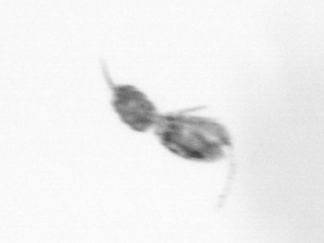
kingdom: Animalia
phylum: Arthropoda
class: Copepoda
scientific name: Copepoda
